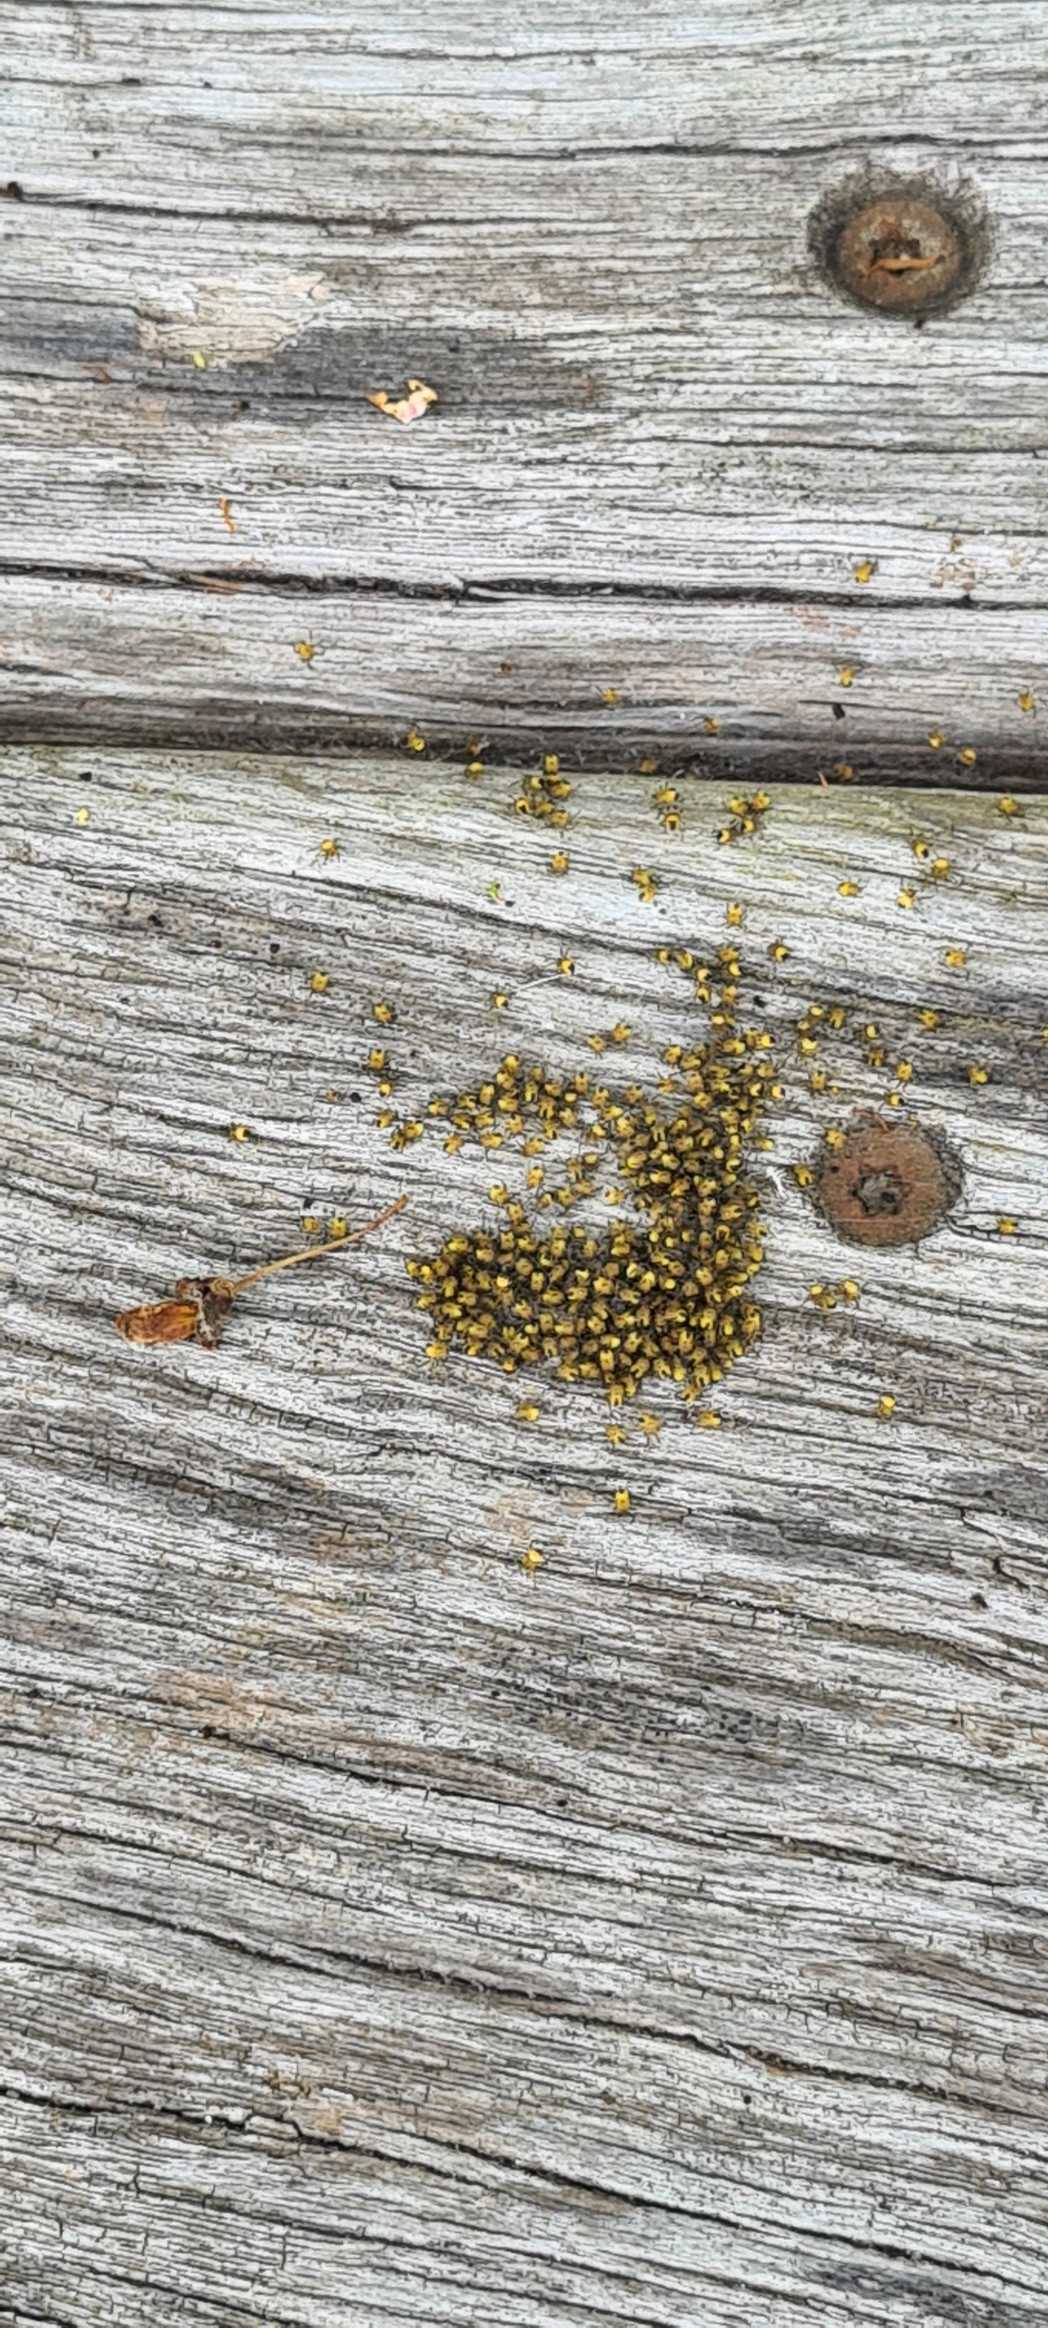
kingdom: Animalia
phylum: Arthropoda
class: Arachnida
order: Araneae
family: Araneidae
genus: Araneus
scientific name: Araneus diadematus
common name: Korsedderkop
